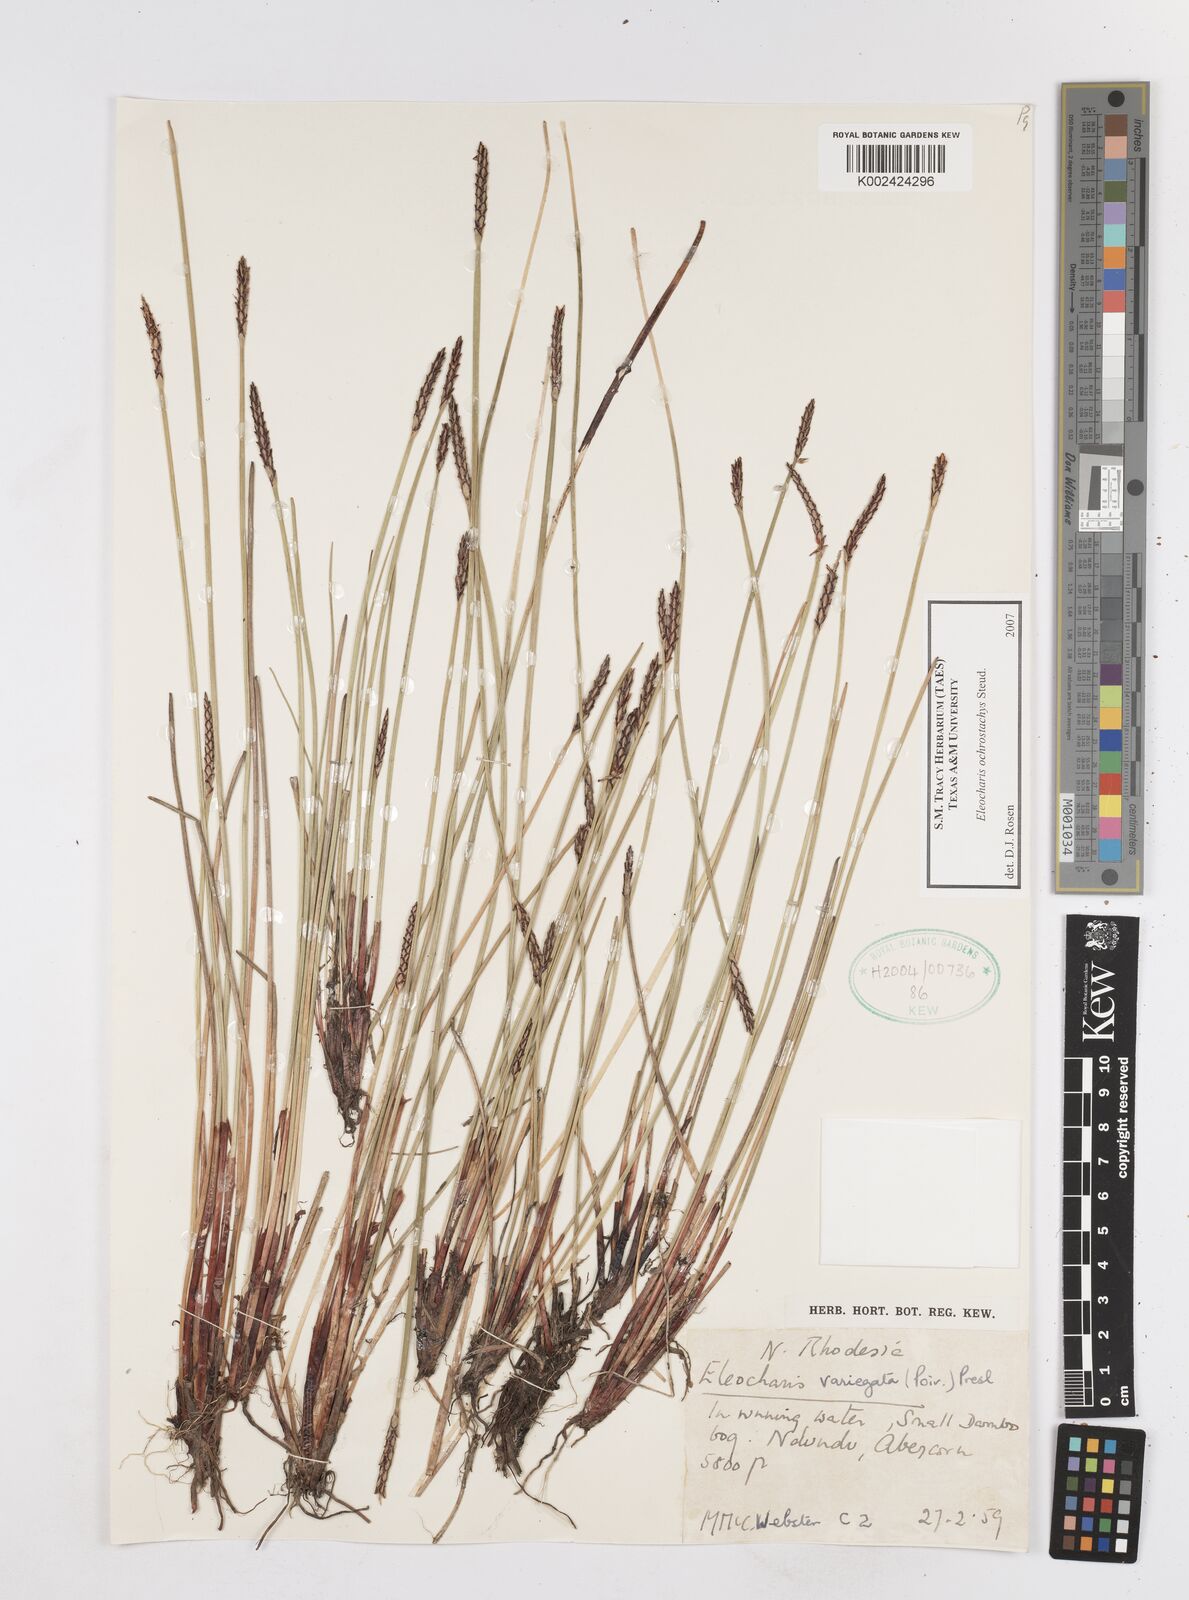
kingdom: Plantae
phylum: Tracheophyta
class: Liliopsida
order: Poales
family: Cyperaceae
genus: Eleocharis
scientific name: Eleocharis ochrostachys
